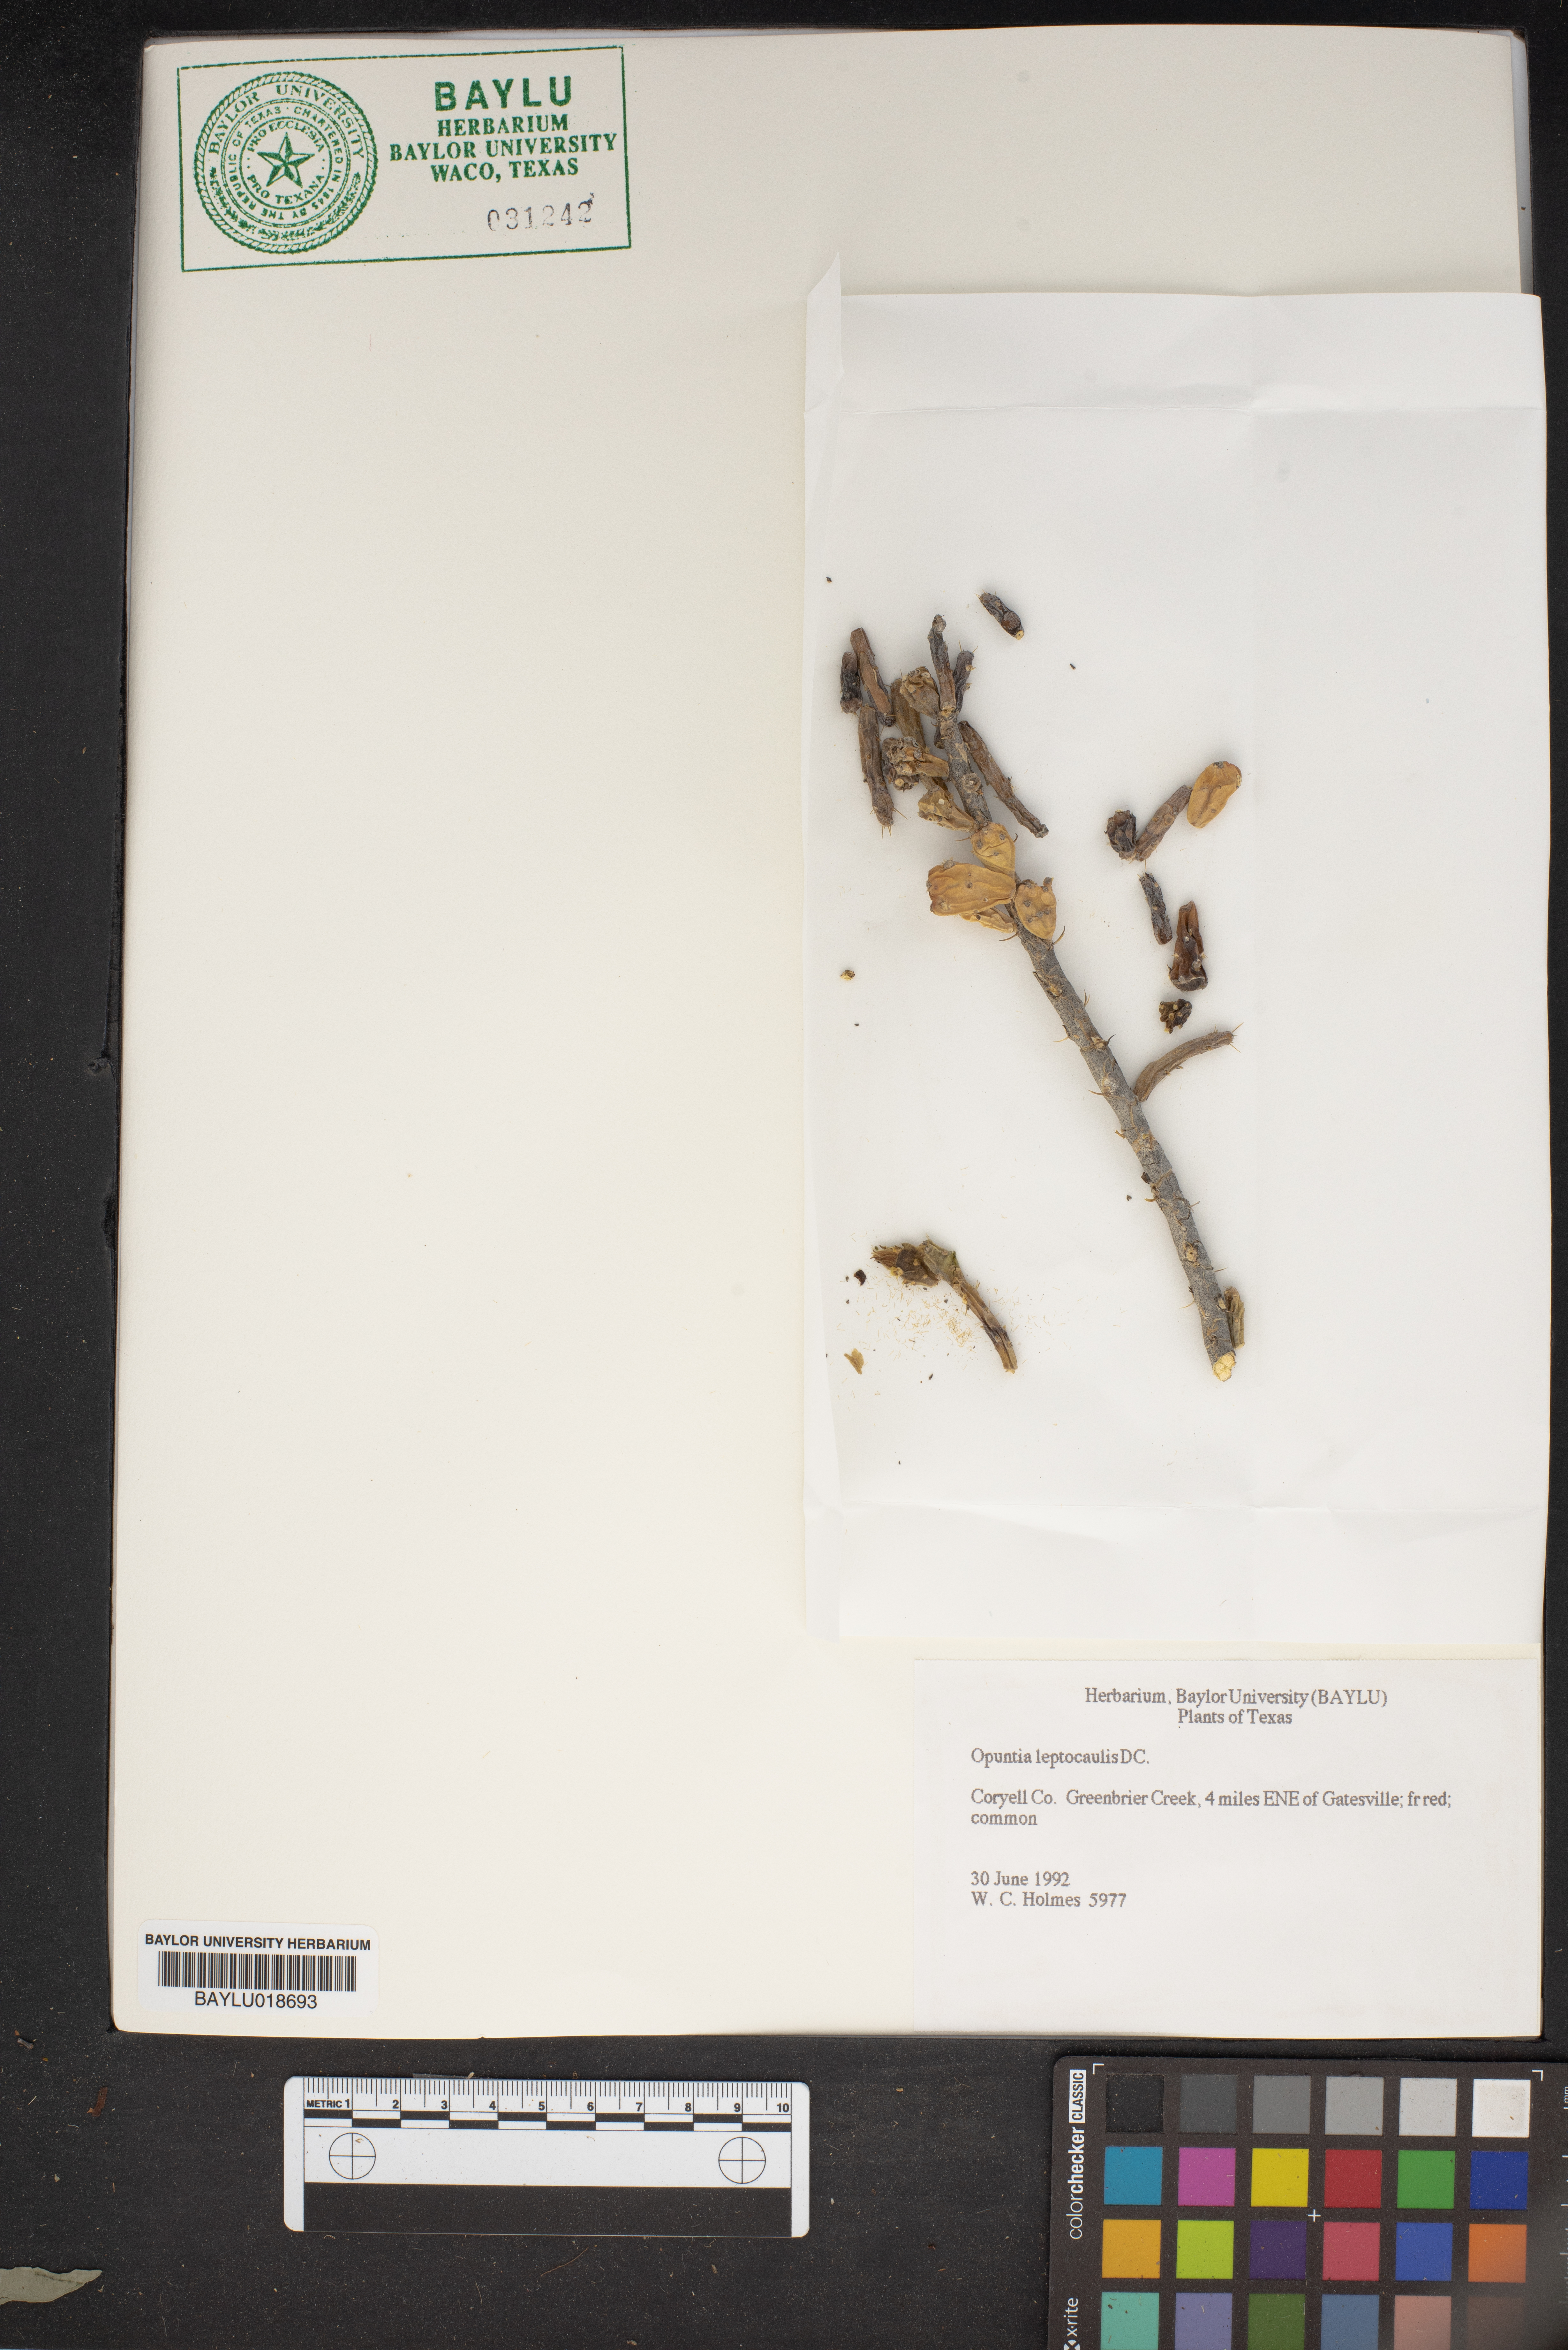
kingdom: Plantae
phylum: Tracheophyta
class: Magnoliopsida
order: Caryophyllales
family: Cactaceae
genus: Cylindropuntia
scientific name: Cylindropuntia leptocaulis
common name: Christmas cactus
